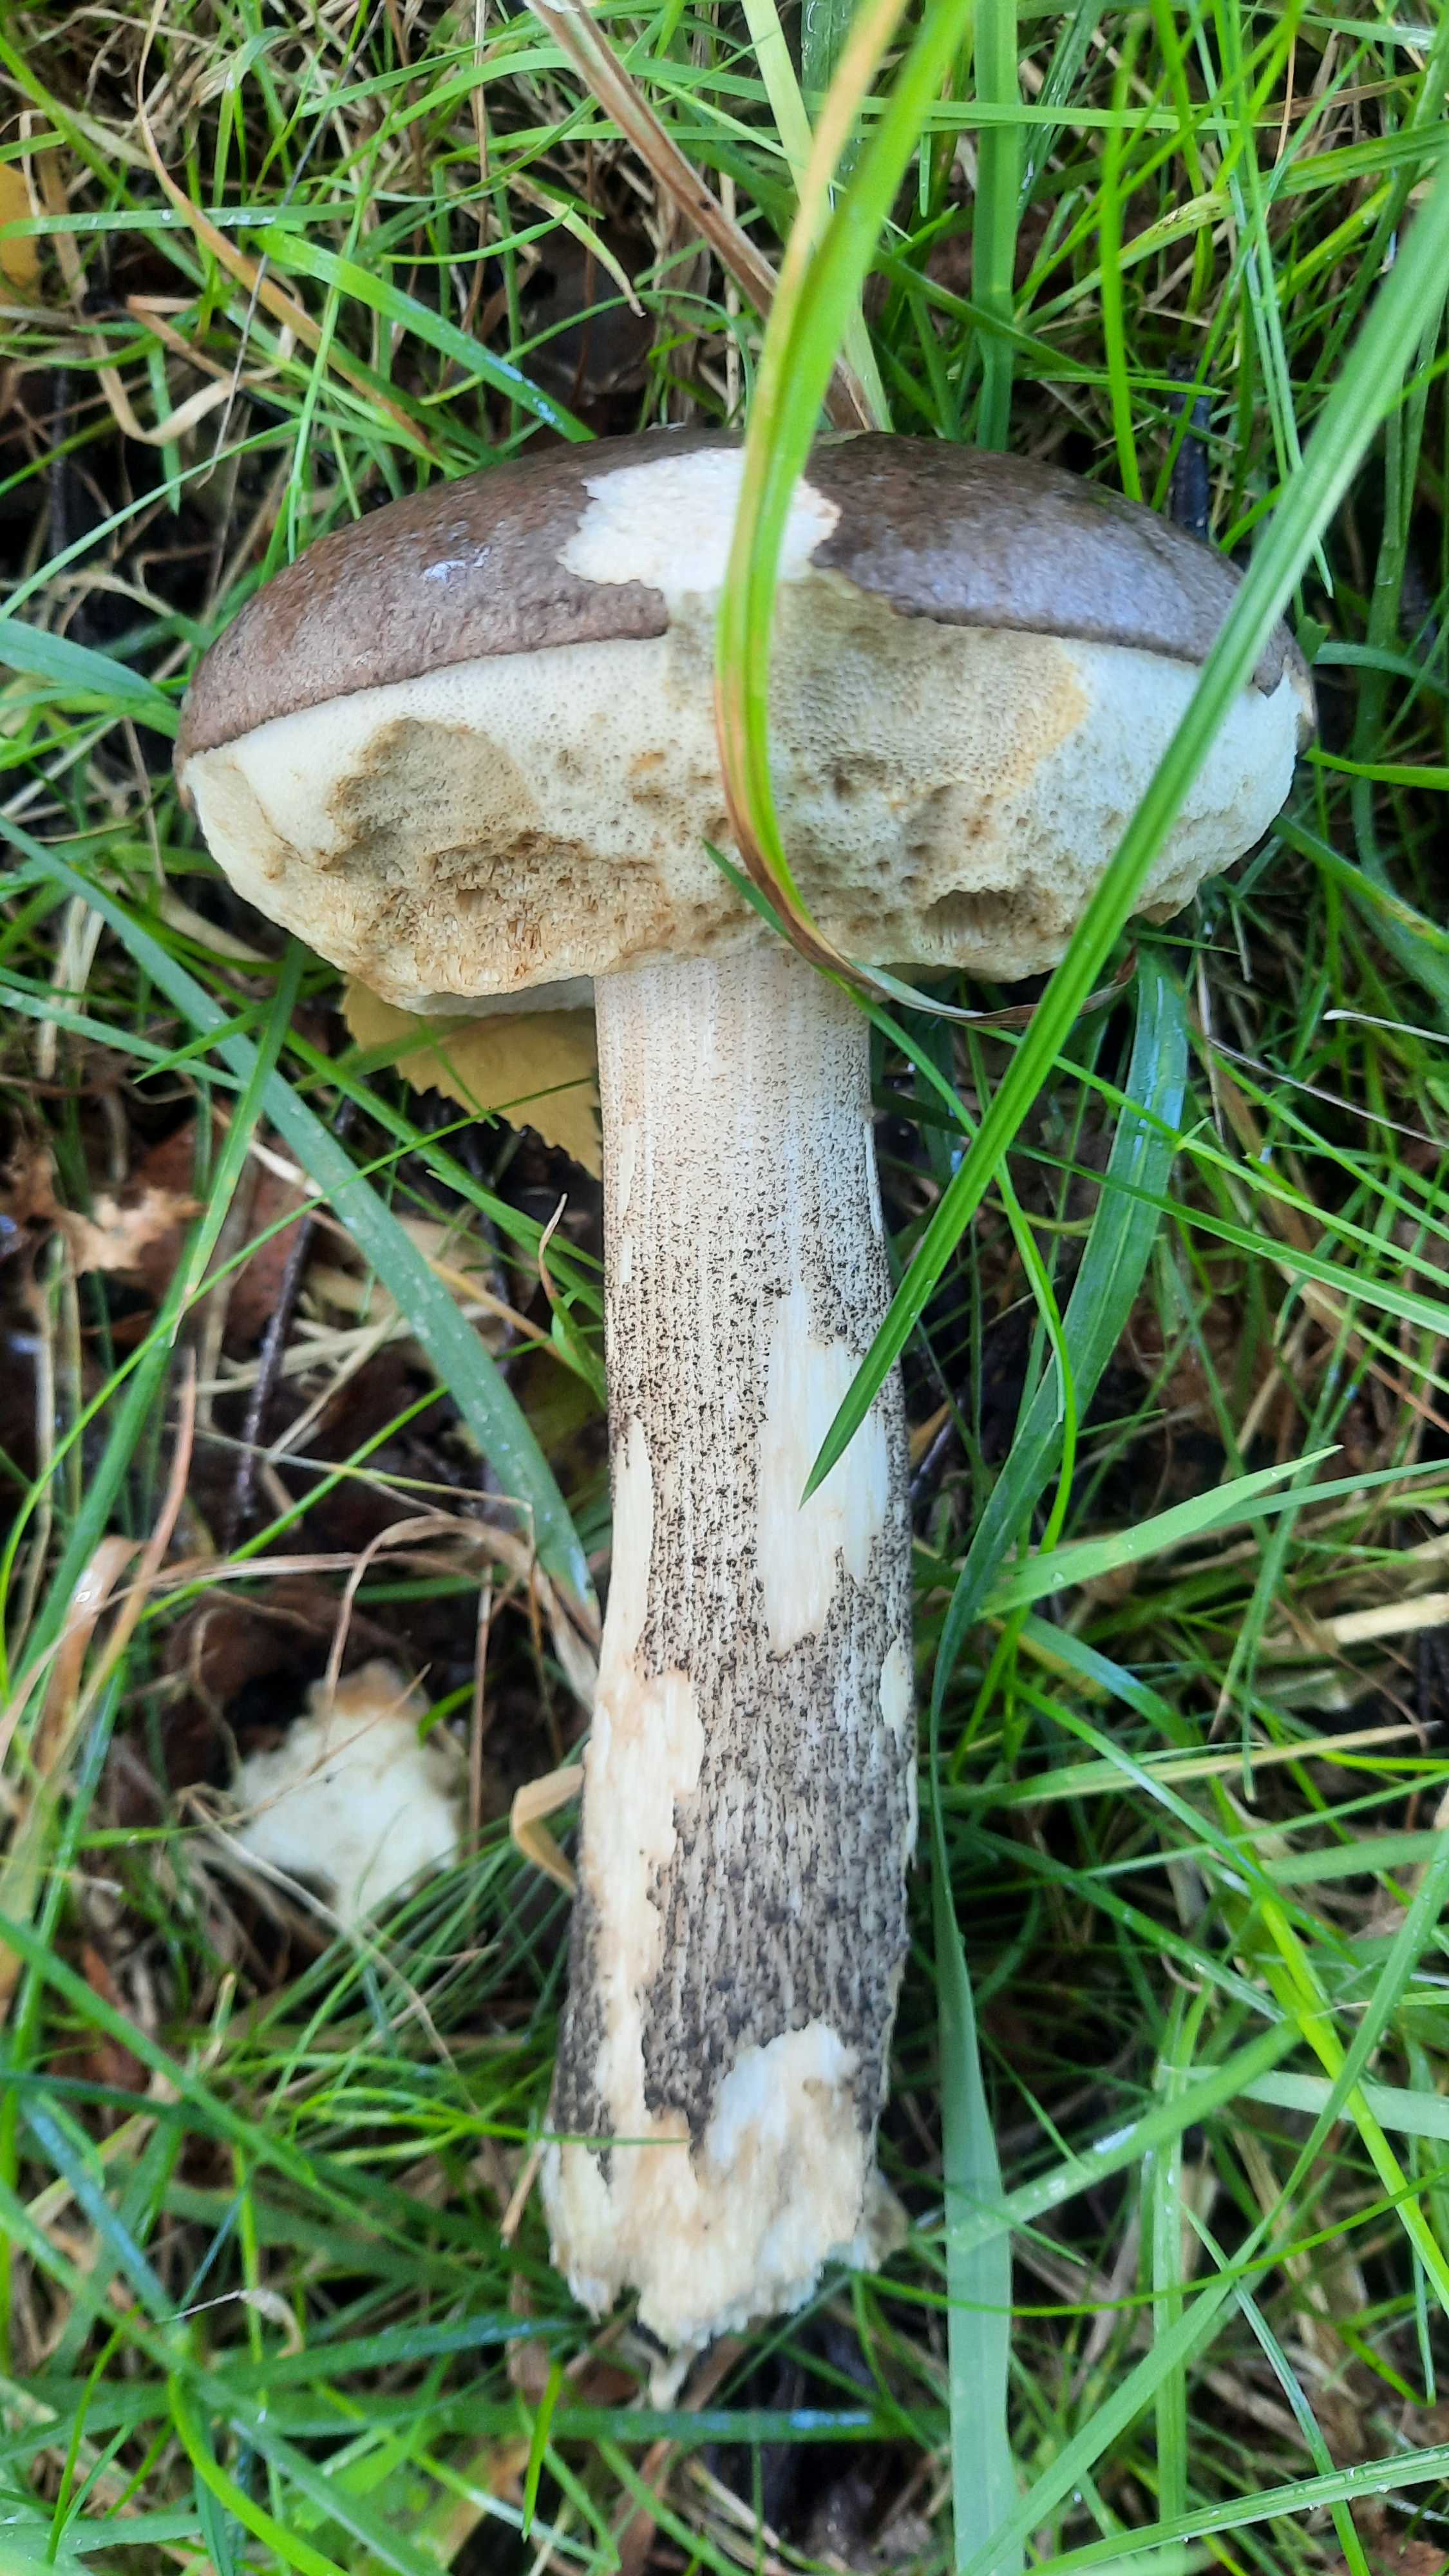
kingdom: Fungi
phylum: Basidiomycota
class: Agaricomycetes
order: Boletales
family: Boletaceae
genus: Leccinum
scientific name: Leccinum scabrum
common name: brun skælrørhat
